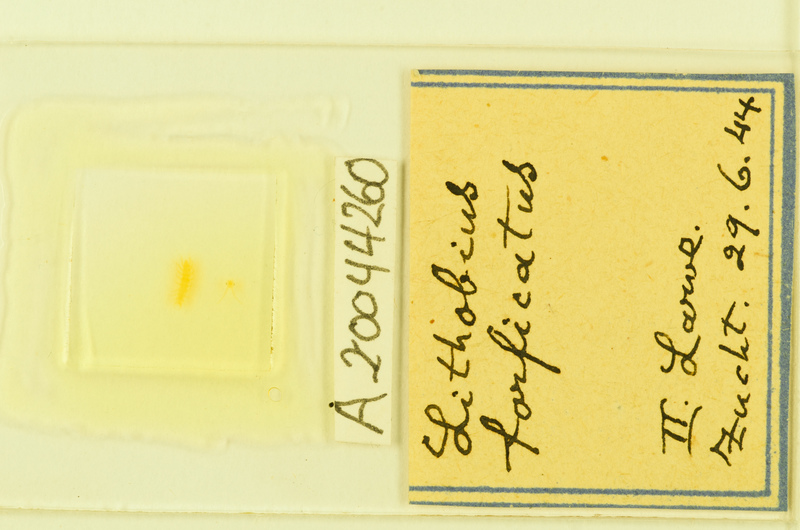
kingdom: Animalia
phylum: Arthropoda
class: Chilopoda
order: Lithobiomorpha
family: Lithobiidae
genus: Lithobius
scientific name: Lithobius forficatus
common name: Centipede
